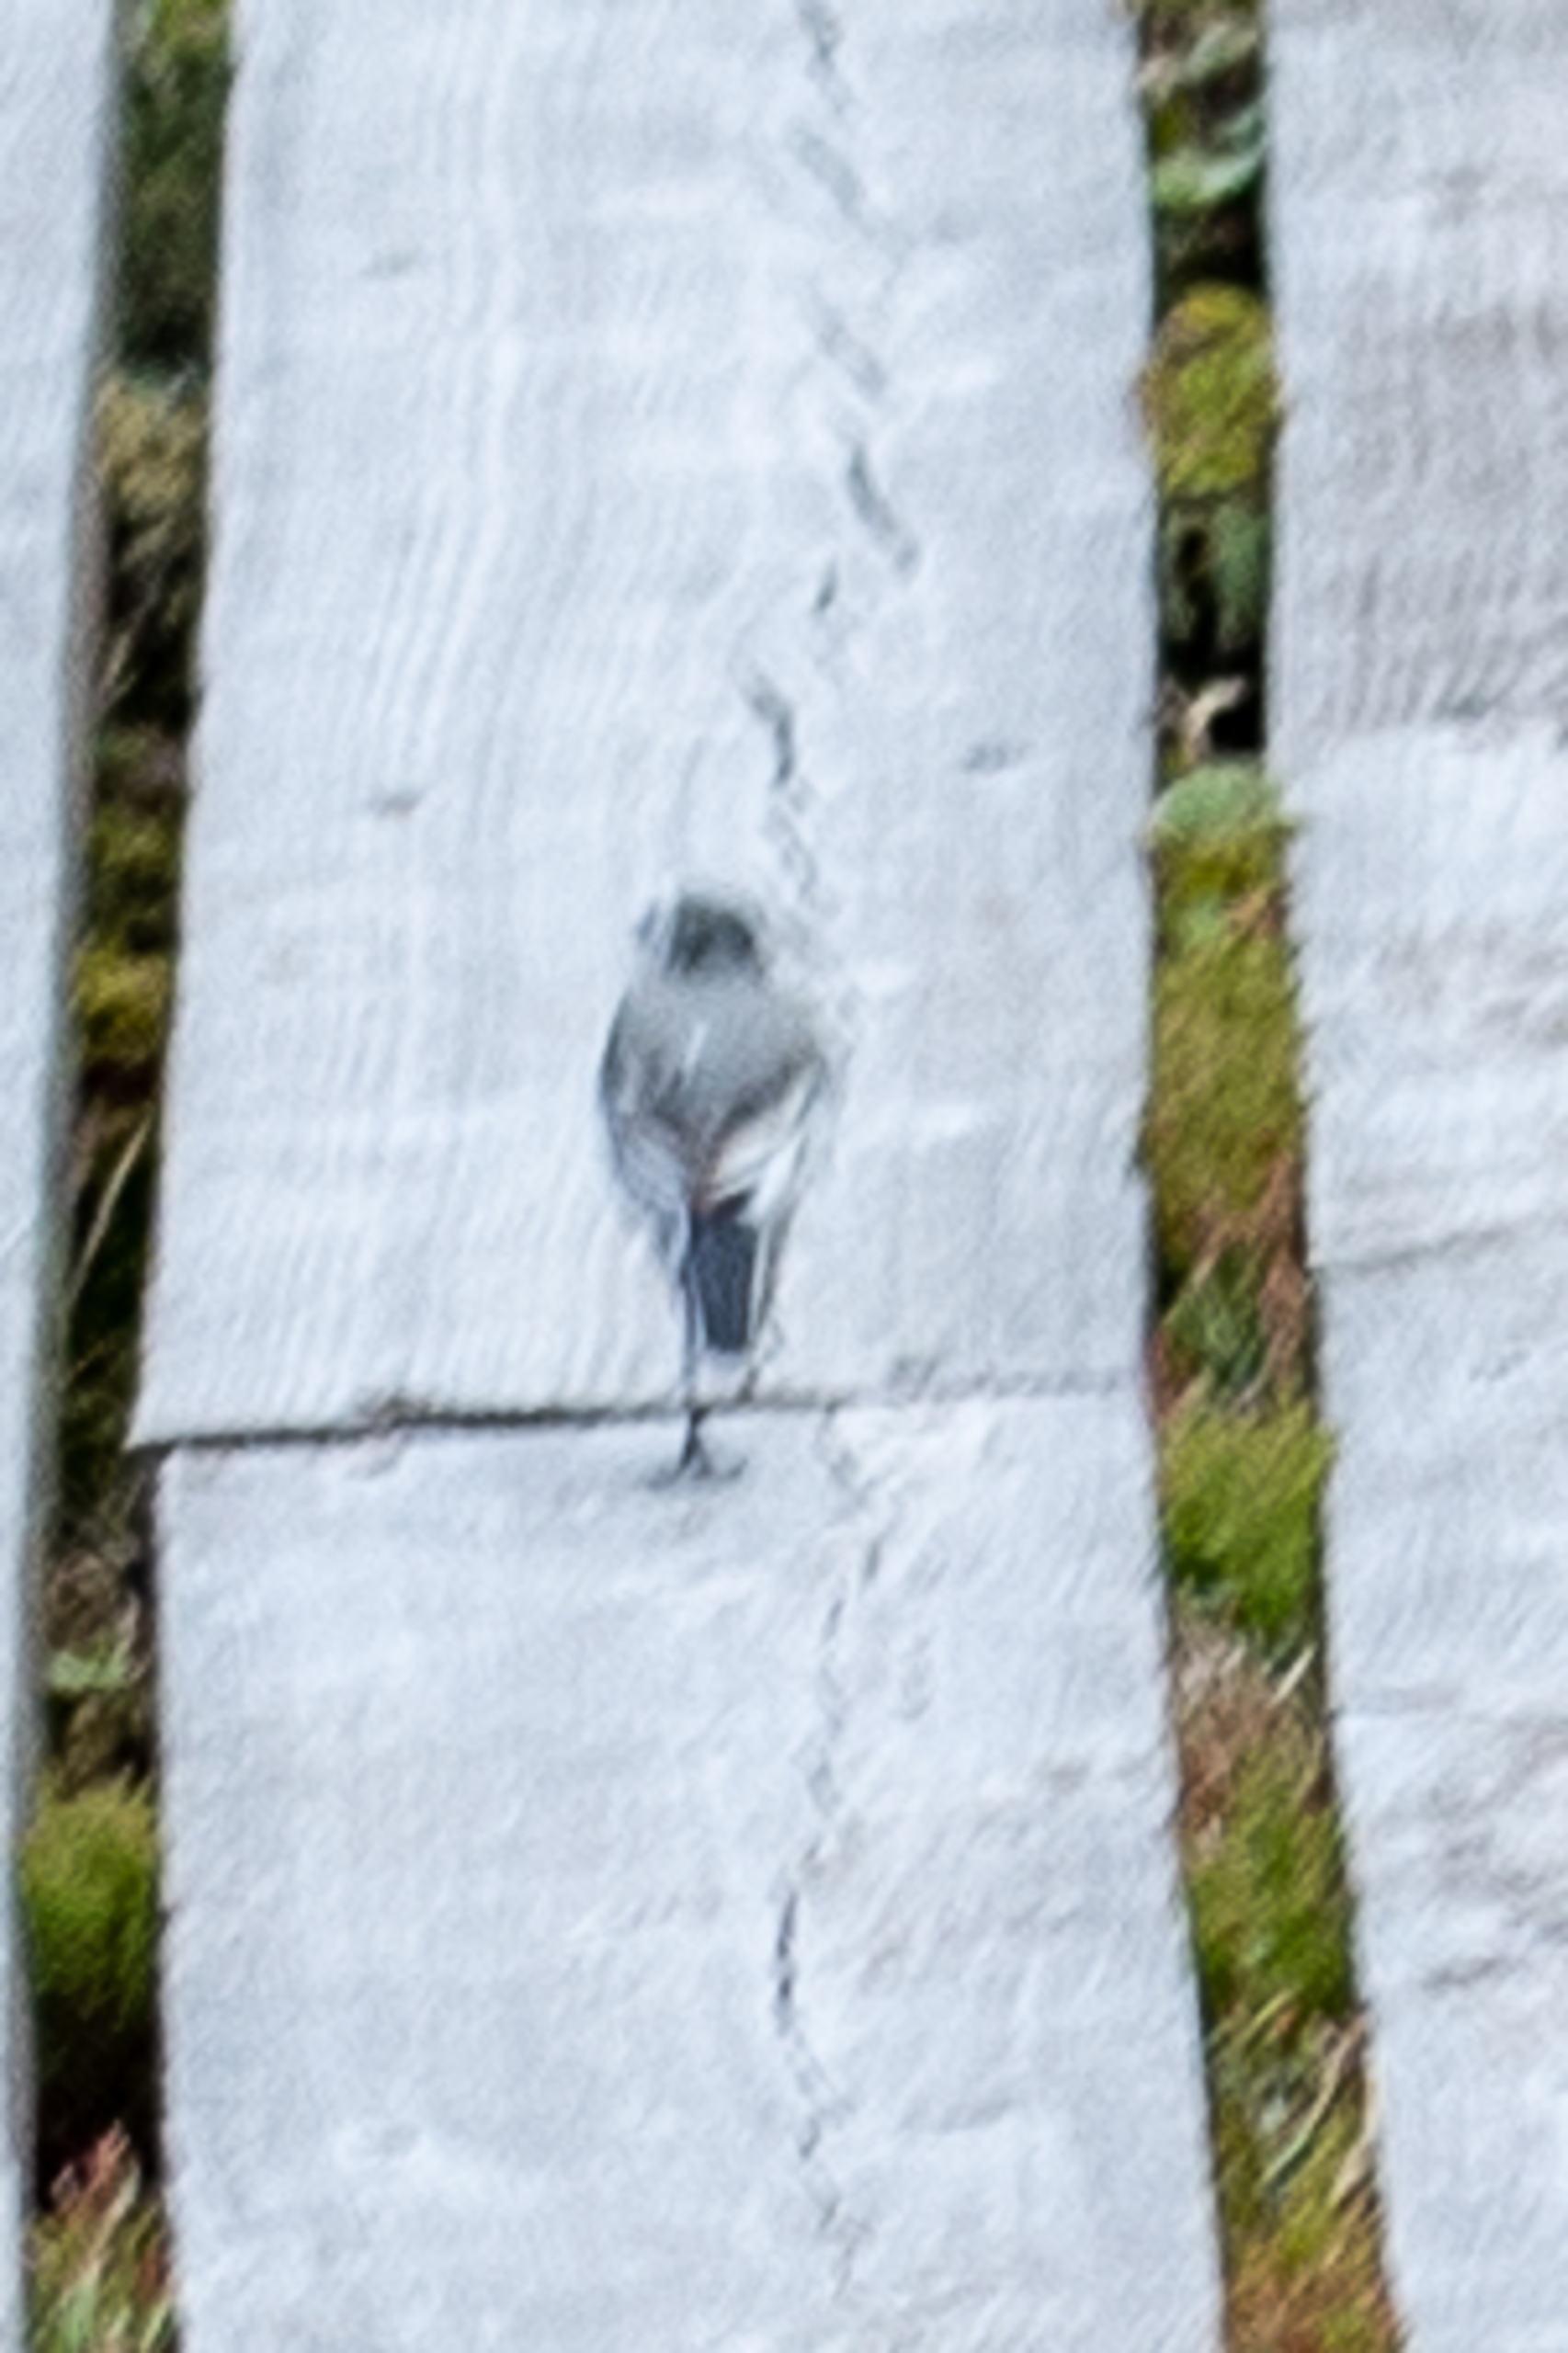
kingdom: Animalia
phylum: Chordata
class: Aves
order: Passeriformes
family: Motacillidae
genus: Motacilla
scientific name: Motacilla alba
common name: Hvid vipstjert
